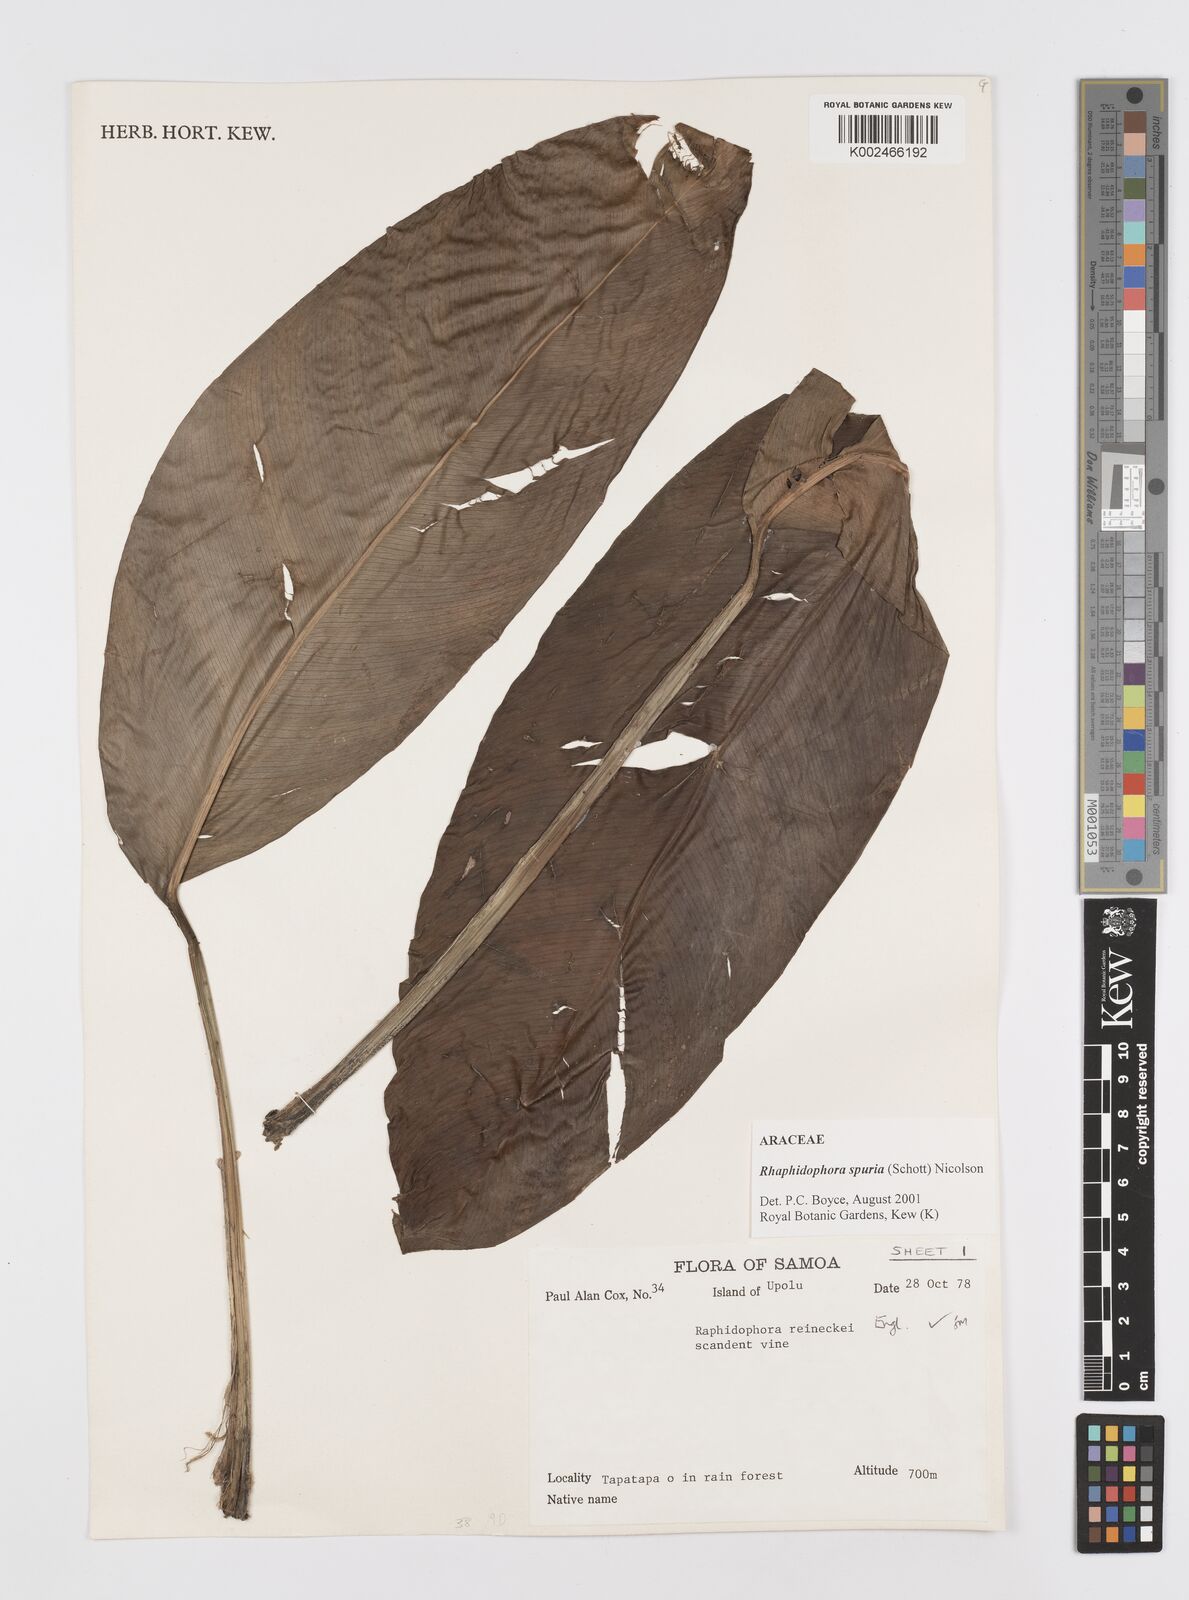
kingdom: Plantae
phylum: Tracheophyta
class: Liliopsida
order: Alismatales
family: Araceae
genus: Rhaphidophora
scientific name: Rhaphidophora spuria
